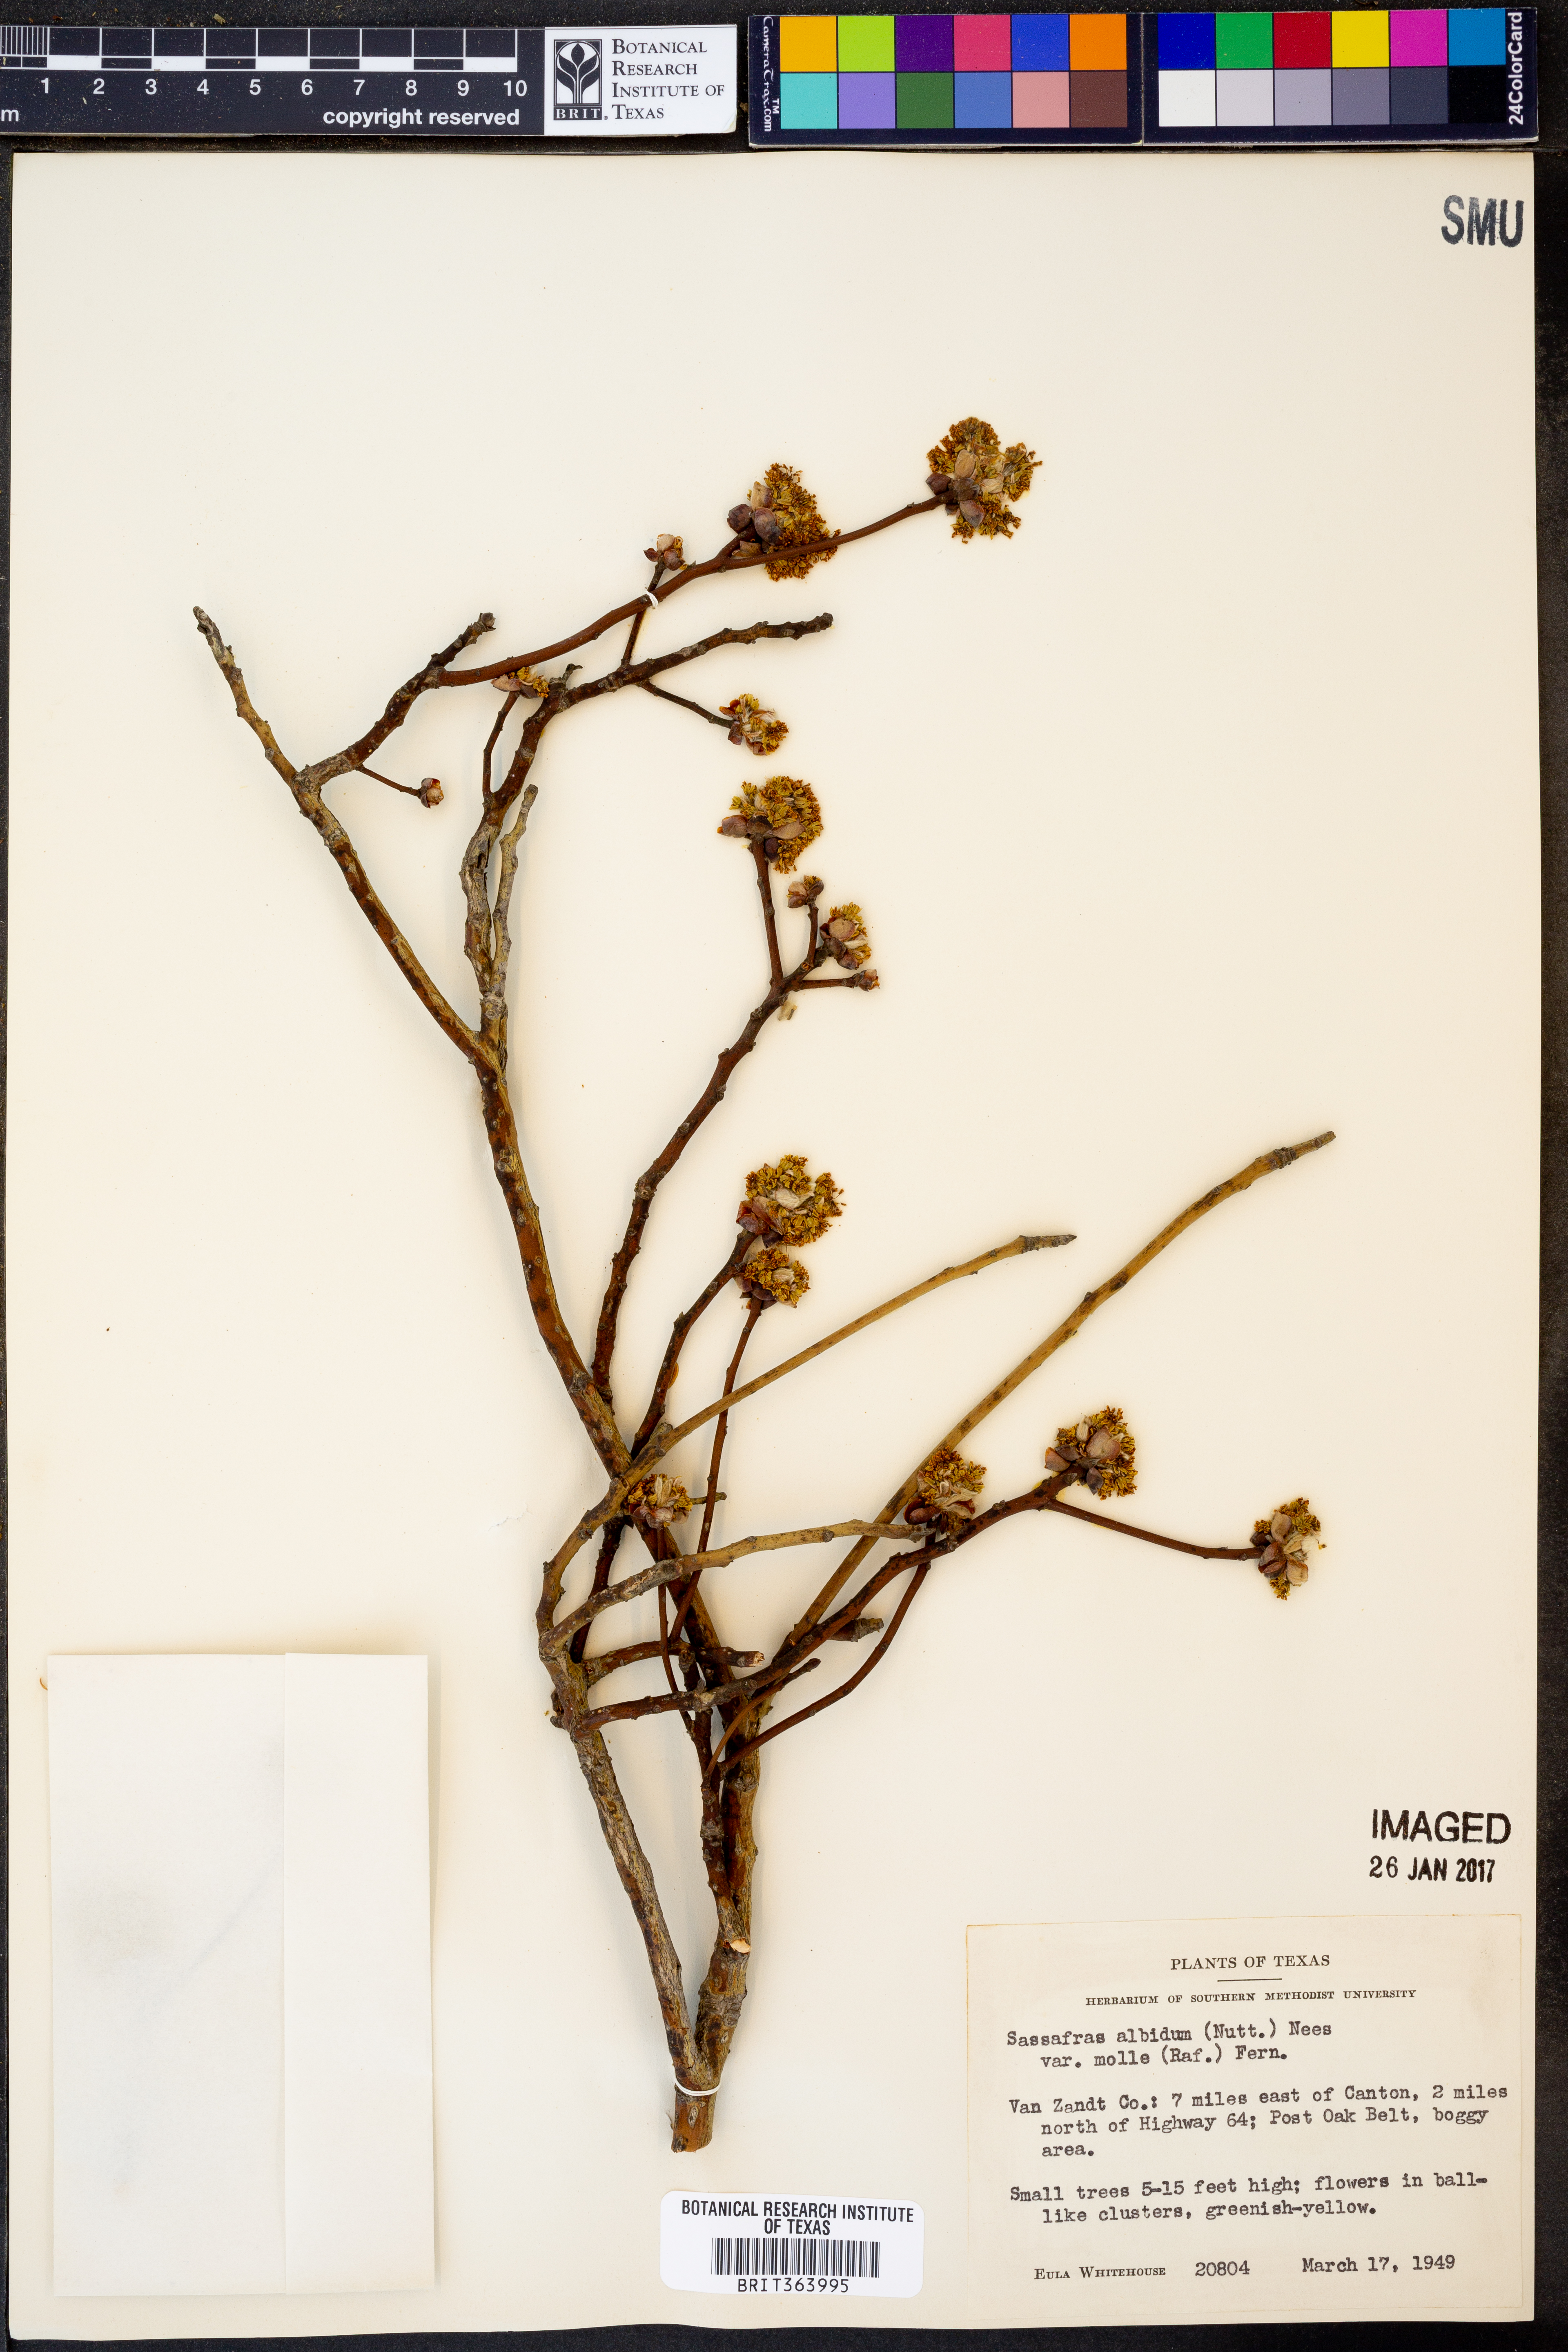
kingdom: Plantae
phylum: Tracheophyta
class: Magnoliopsida
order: Laurales
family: Lauraceae
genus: Sassafras
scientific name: Sassafras albidum
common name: Sassafras
